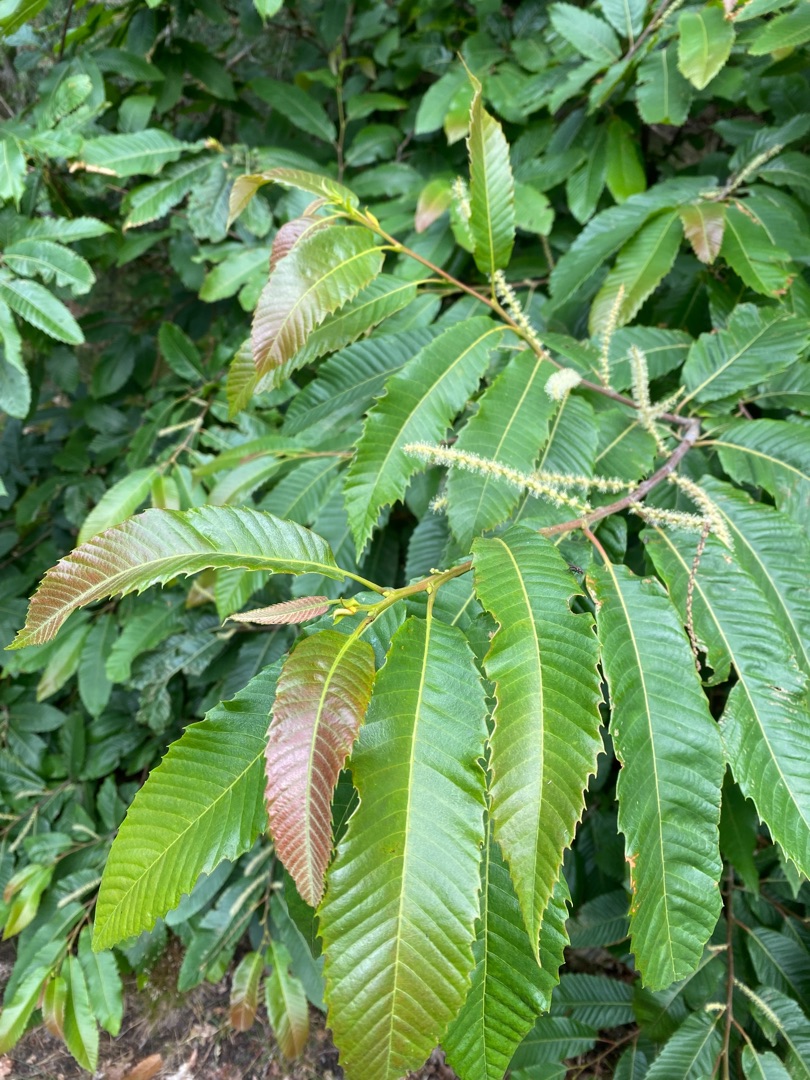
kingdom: Plantae
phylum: Tracheophyta
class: Magnoliopsida
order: Fagales
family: Fagaceae
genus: Castanea
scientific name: Castanea sativa
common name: Ægte kastanie
